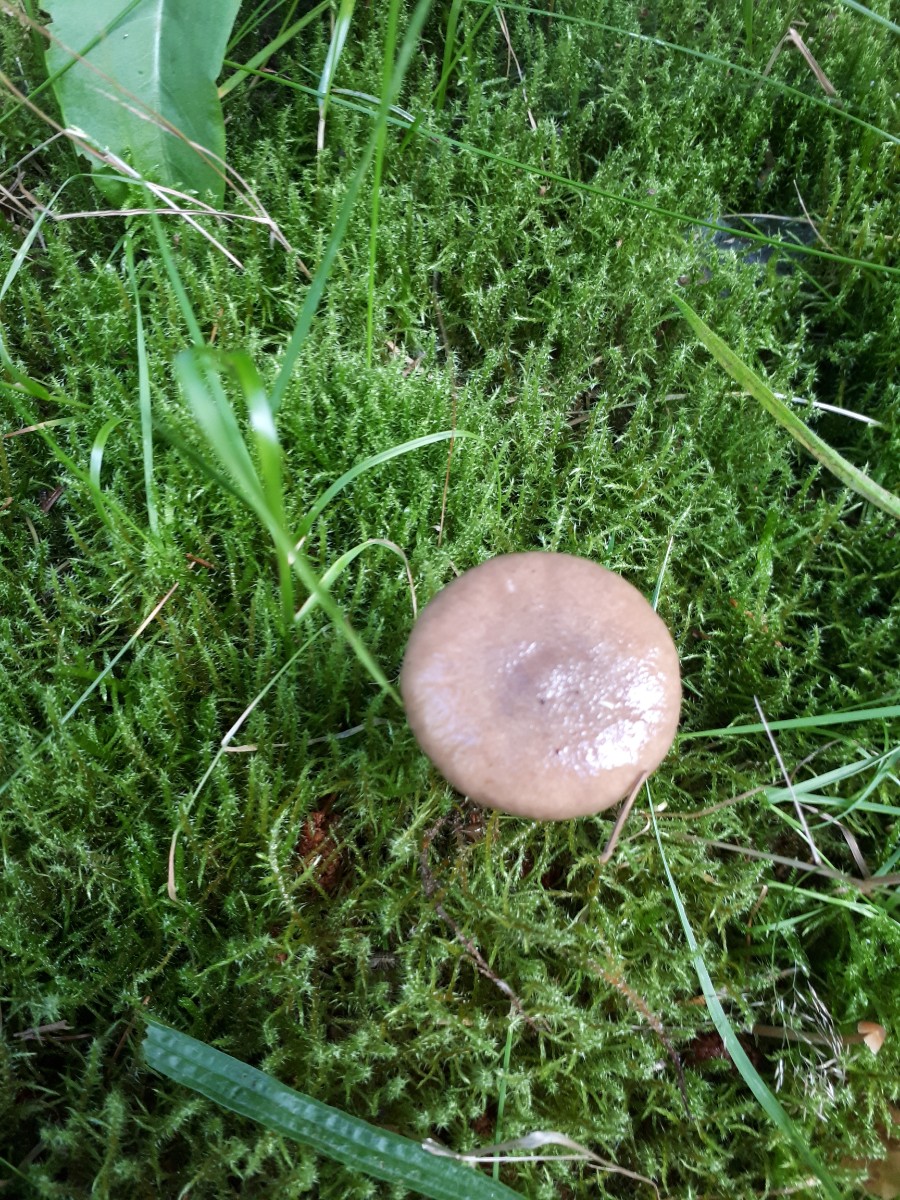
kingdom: Fungi
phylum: Basidiomycota
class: Agaricomycetes
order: Boletales
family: Gomphidiaceae
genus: Gomphidius
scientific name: Gomphidius glutinosus
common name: grå slimslør
